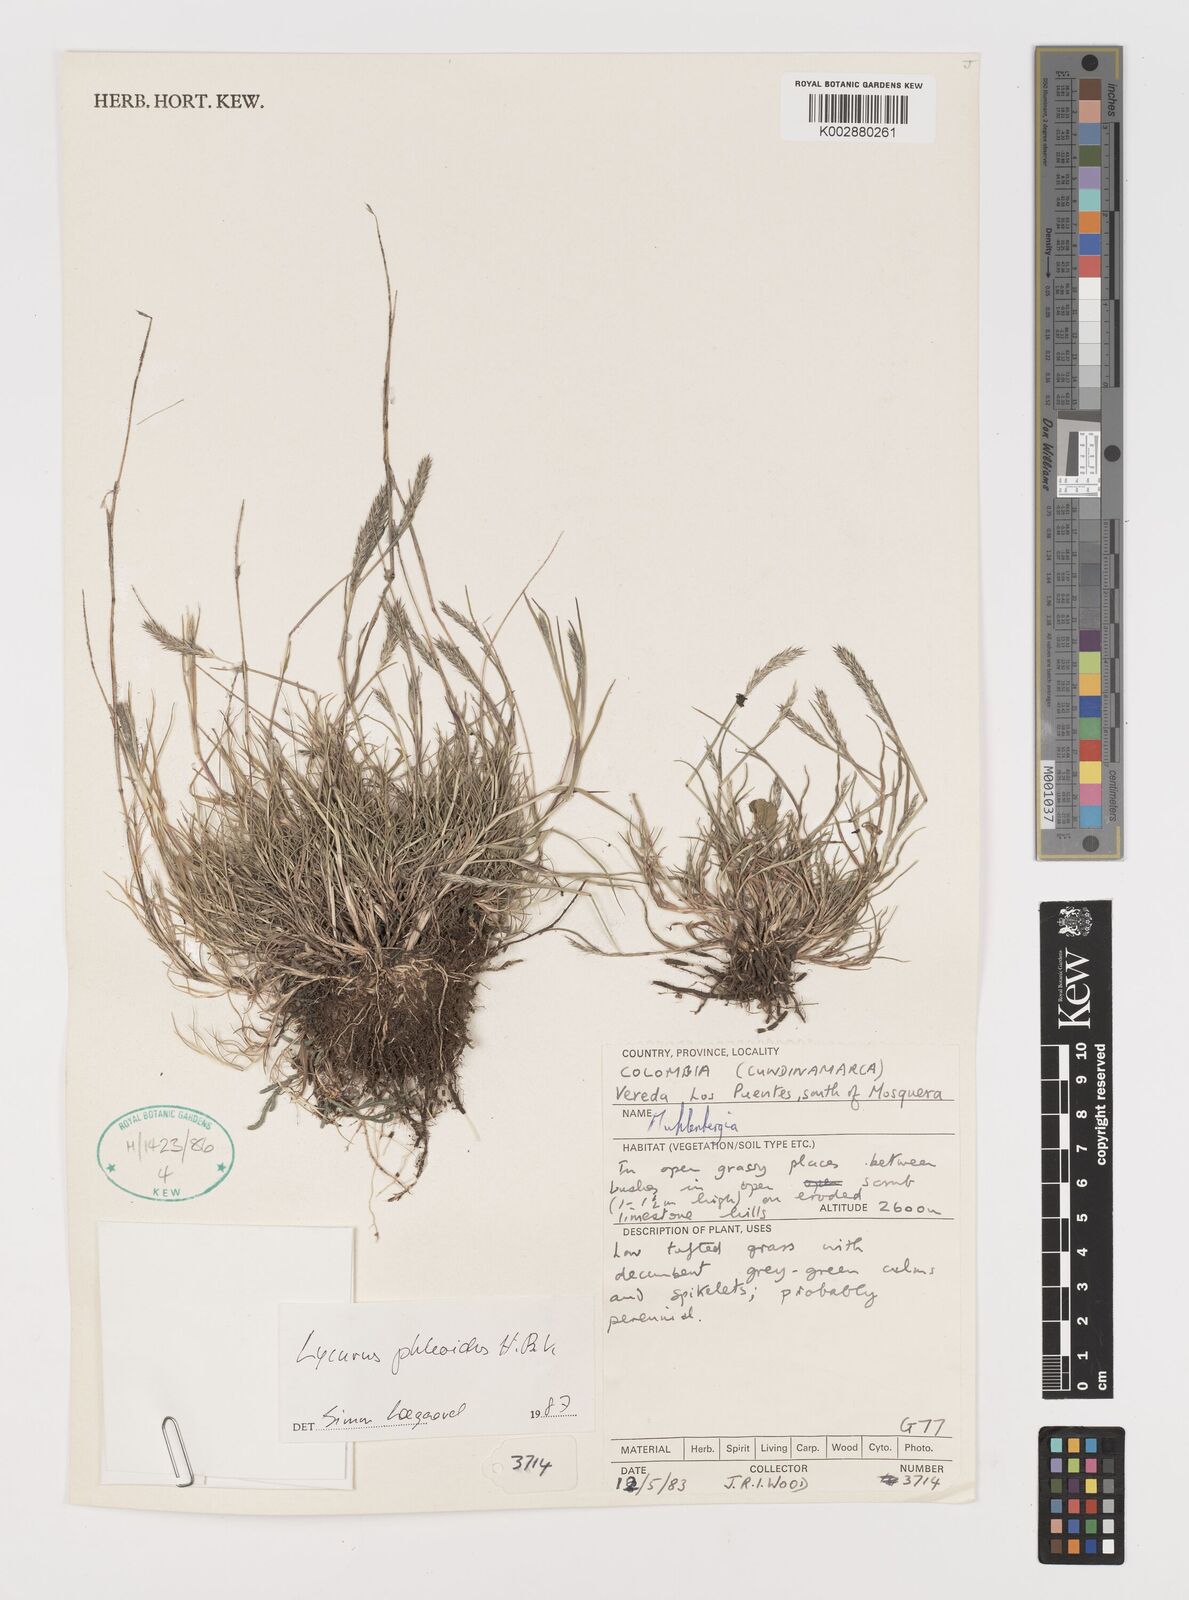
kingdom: Plantae
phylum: Tracheophyta
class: Liliopsida
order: Poales
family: Poaceae
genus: Muhlenbergia
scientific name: Muhlenbergia phalaroides
